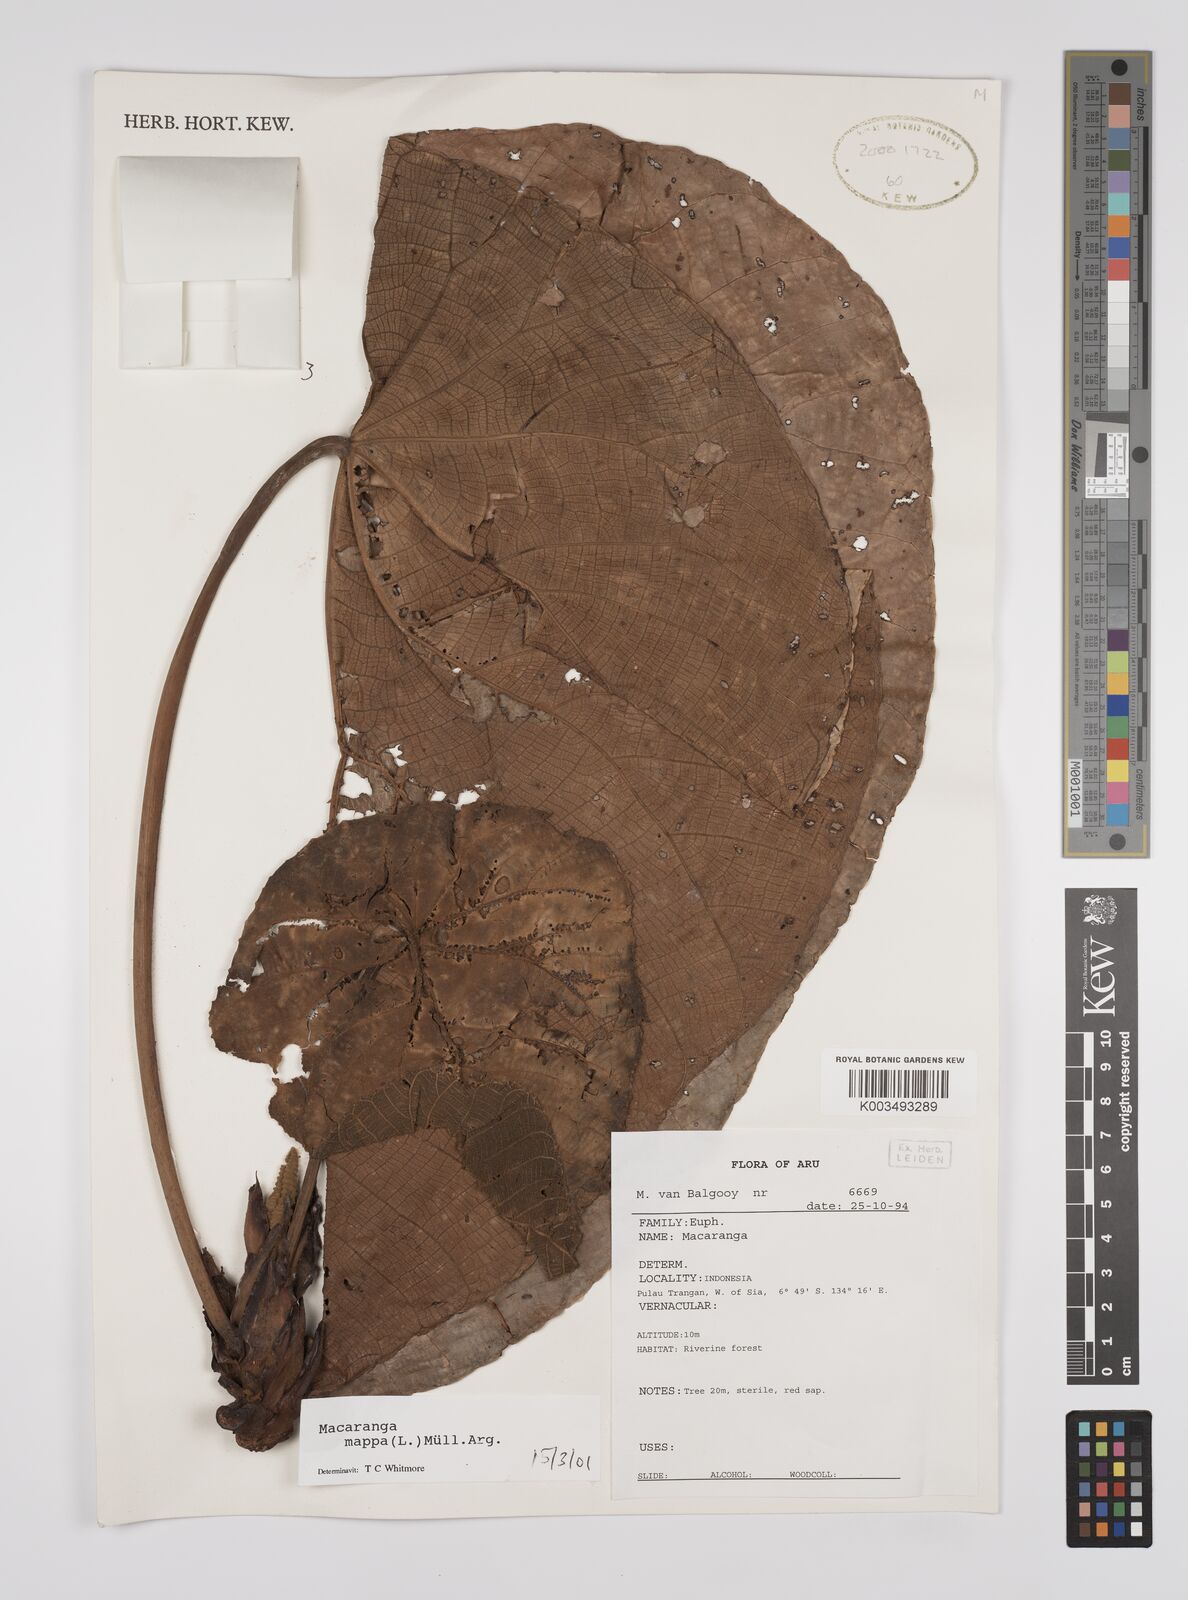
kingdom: Plantae
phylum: Tracheophyta
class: Magnoliopsida
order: Malpighiales
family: Euphorbiaceae
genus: Macaranga
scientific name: Macaranga mappa
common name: Pengua
